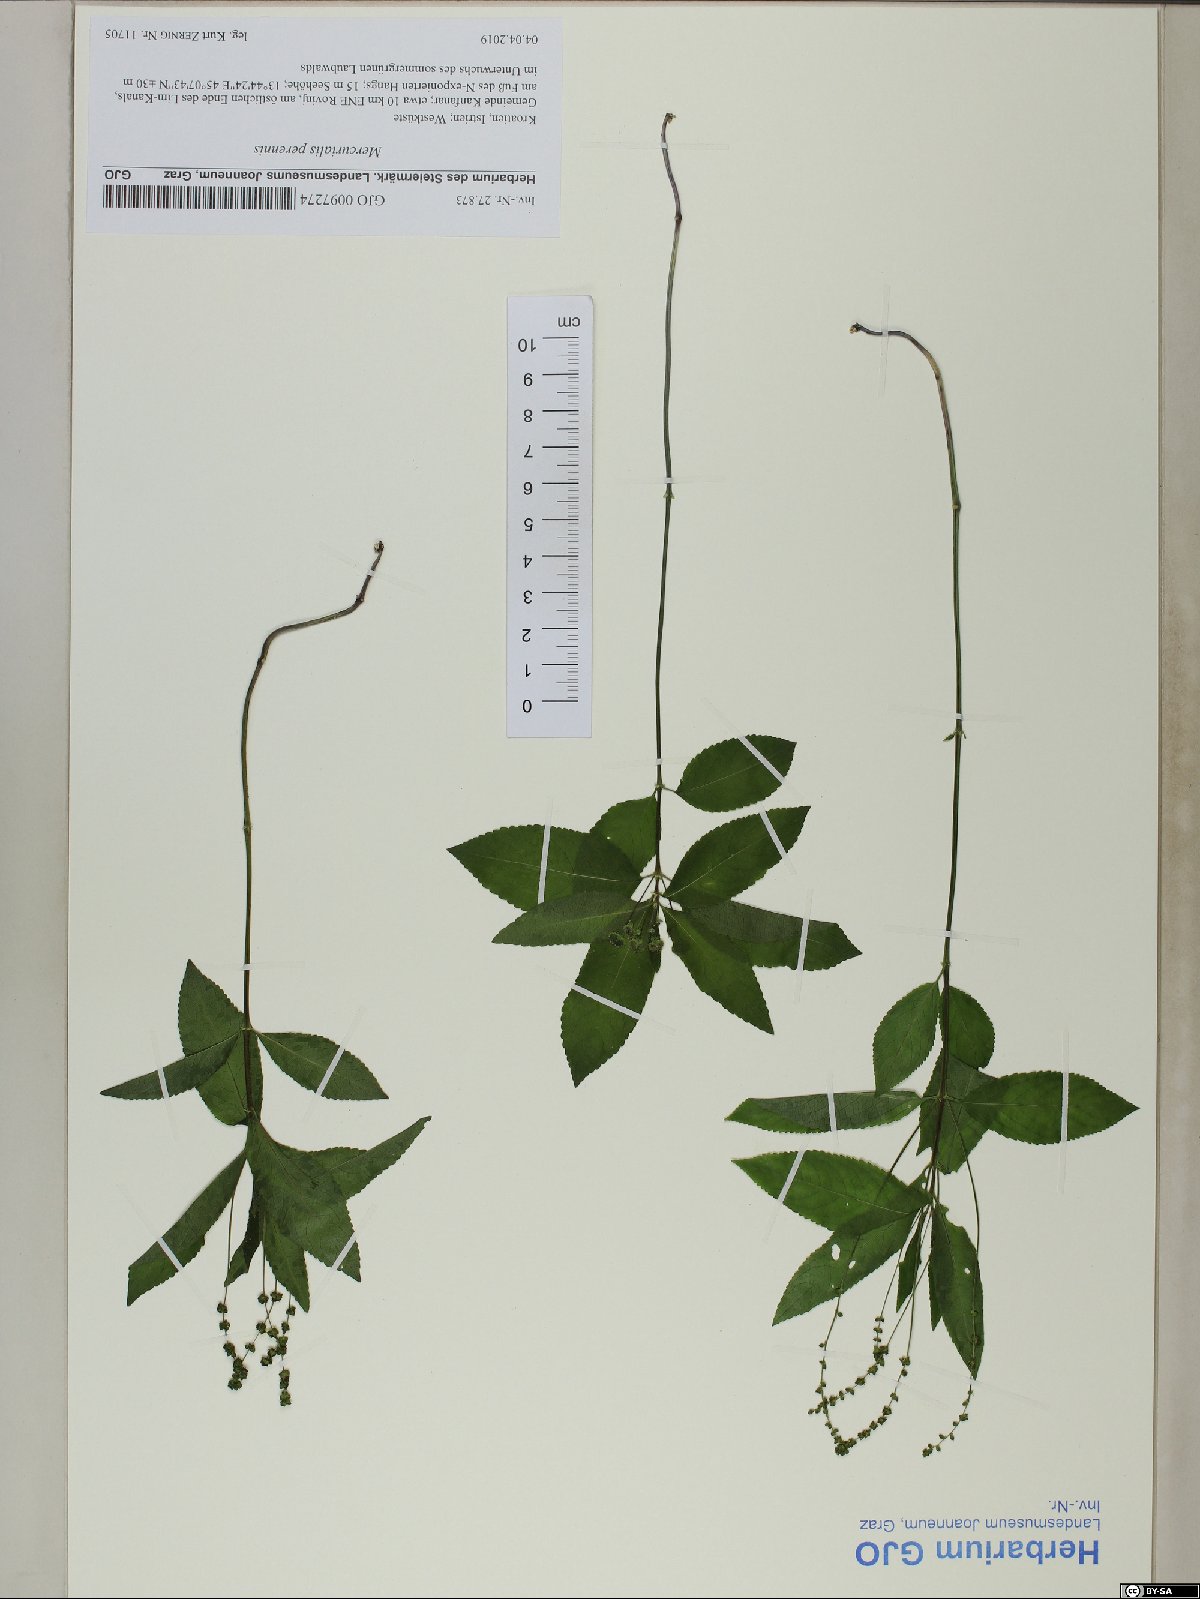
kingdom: Plantae
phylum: Tracheophyta
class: Magnoliopsida
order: Malpighiales
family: Euphorbiaceae
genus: Mercurialis
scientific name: Mercurialis perennis
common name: Dog mercury
